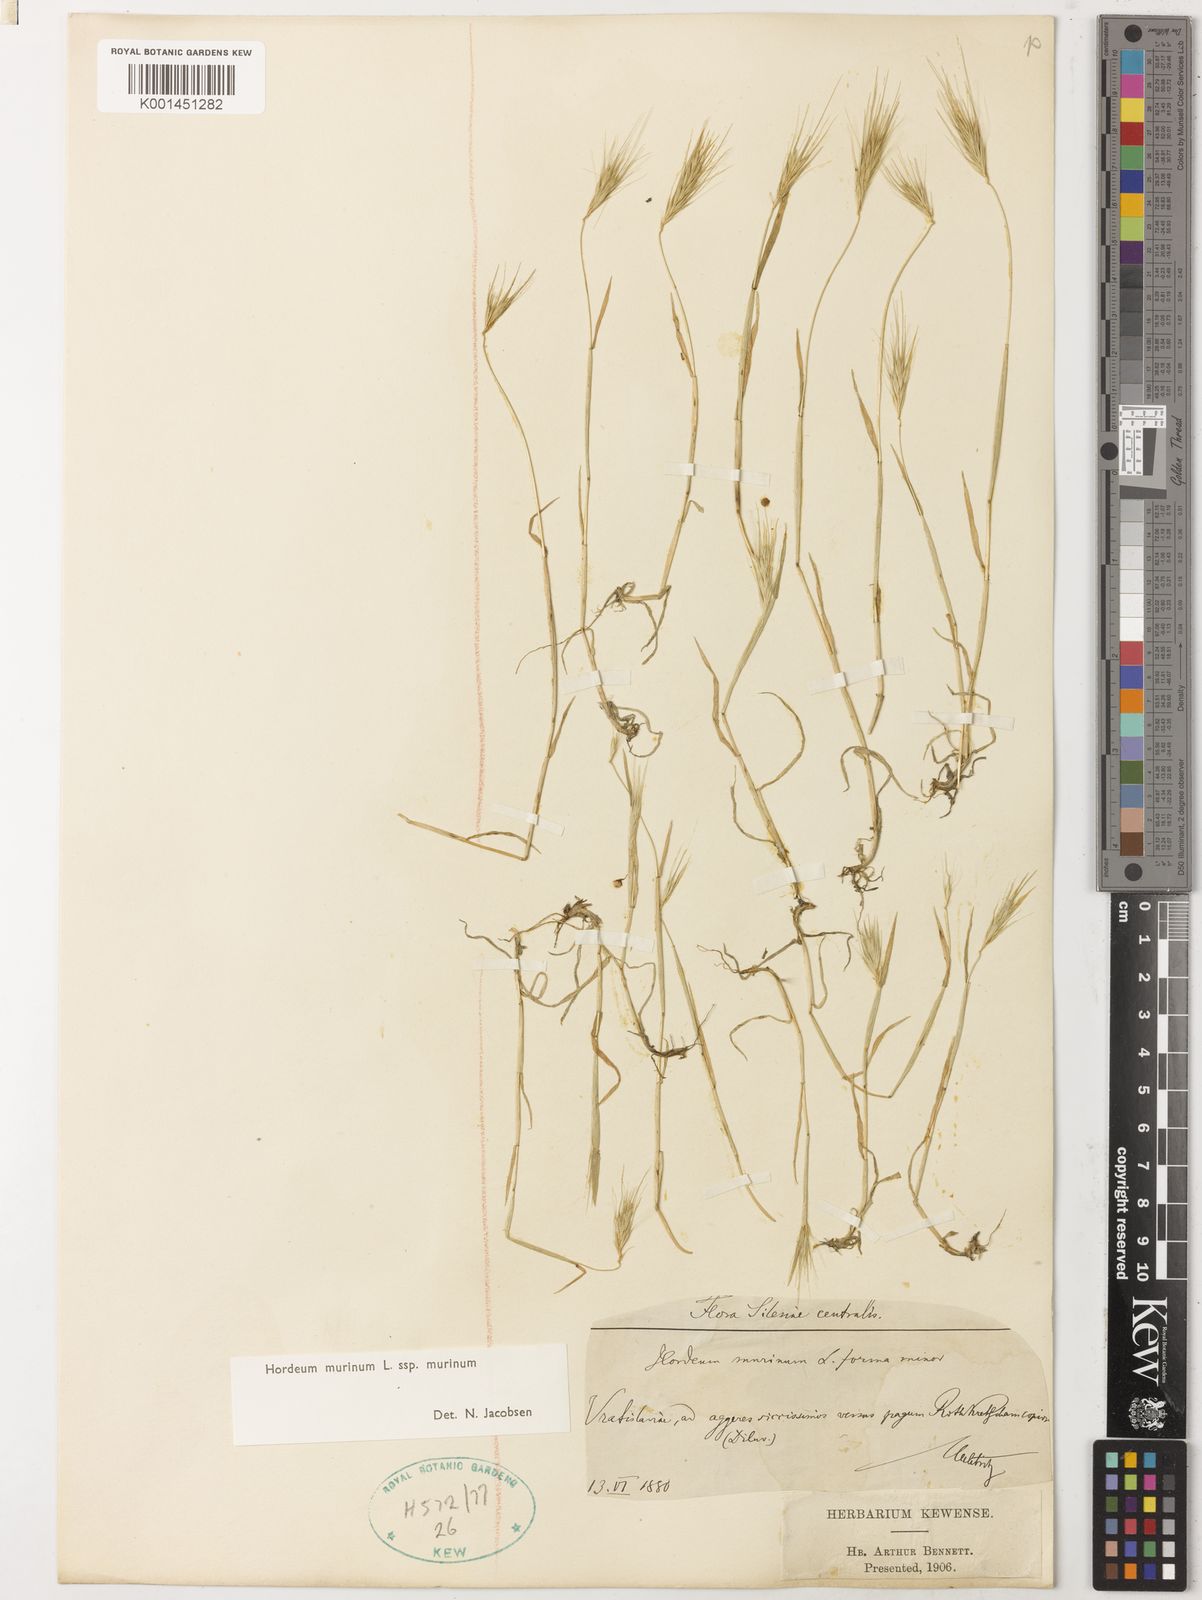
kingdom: Plantae
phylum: Tracheophyta
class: Liliopsida
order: Poales
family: Poaceae
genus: Hordeum
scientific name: Hordeum murinum
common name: Wall barley
